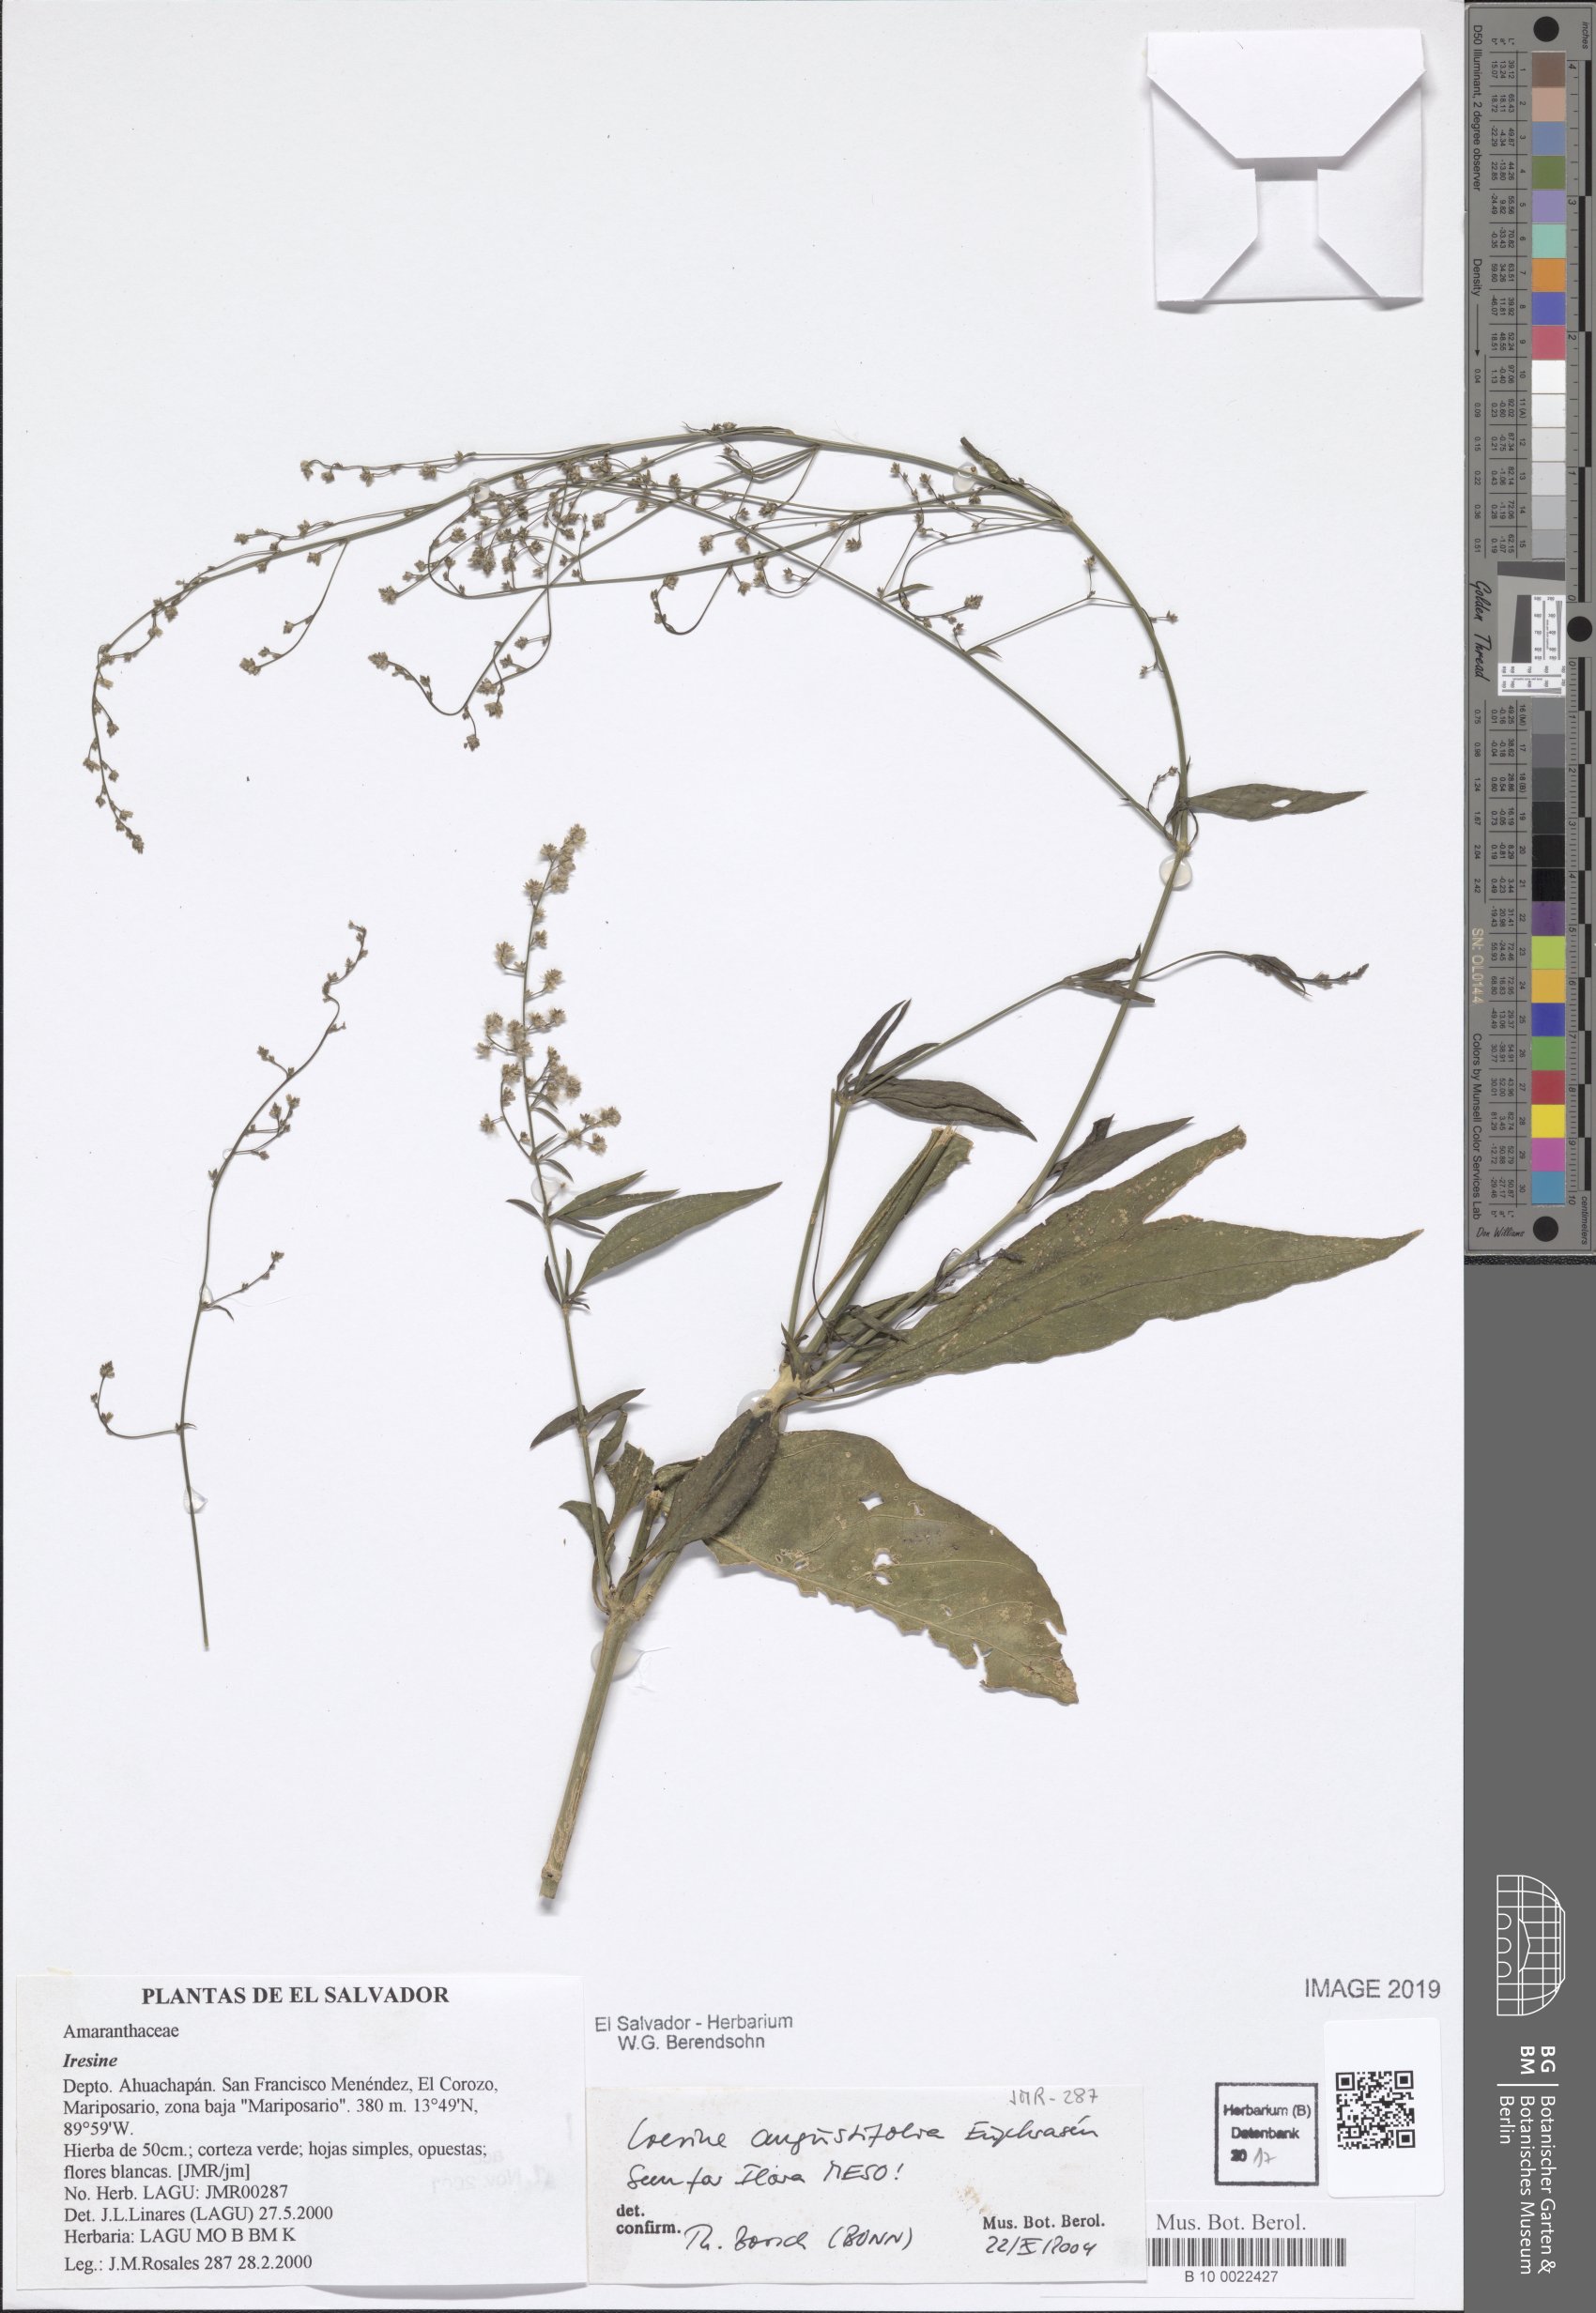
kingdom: Plantae
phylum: Tracheophyta
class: Magnoliopsida
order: Caryophyllales
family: Amaranthaceae
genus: Iresine
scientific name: Iresine angustifolia
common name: White snowplant
